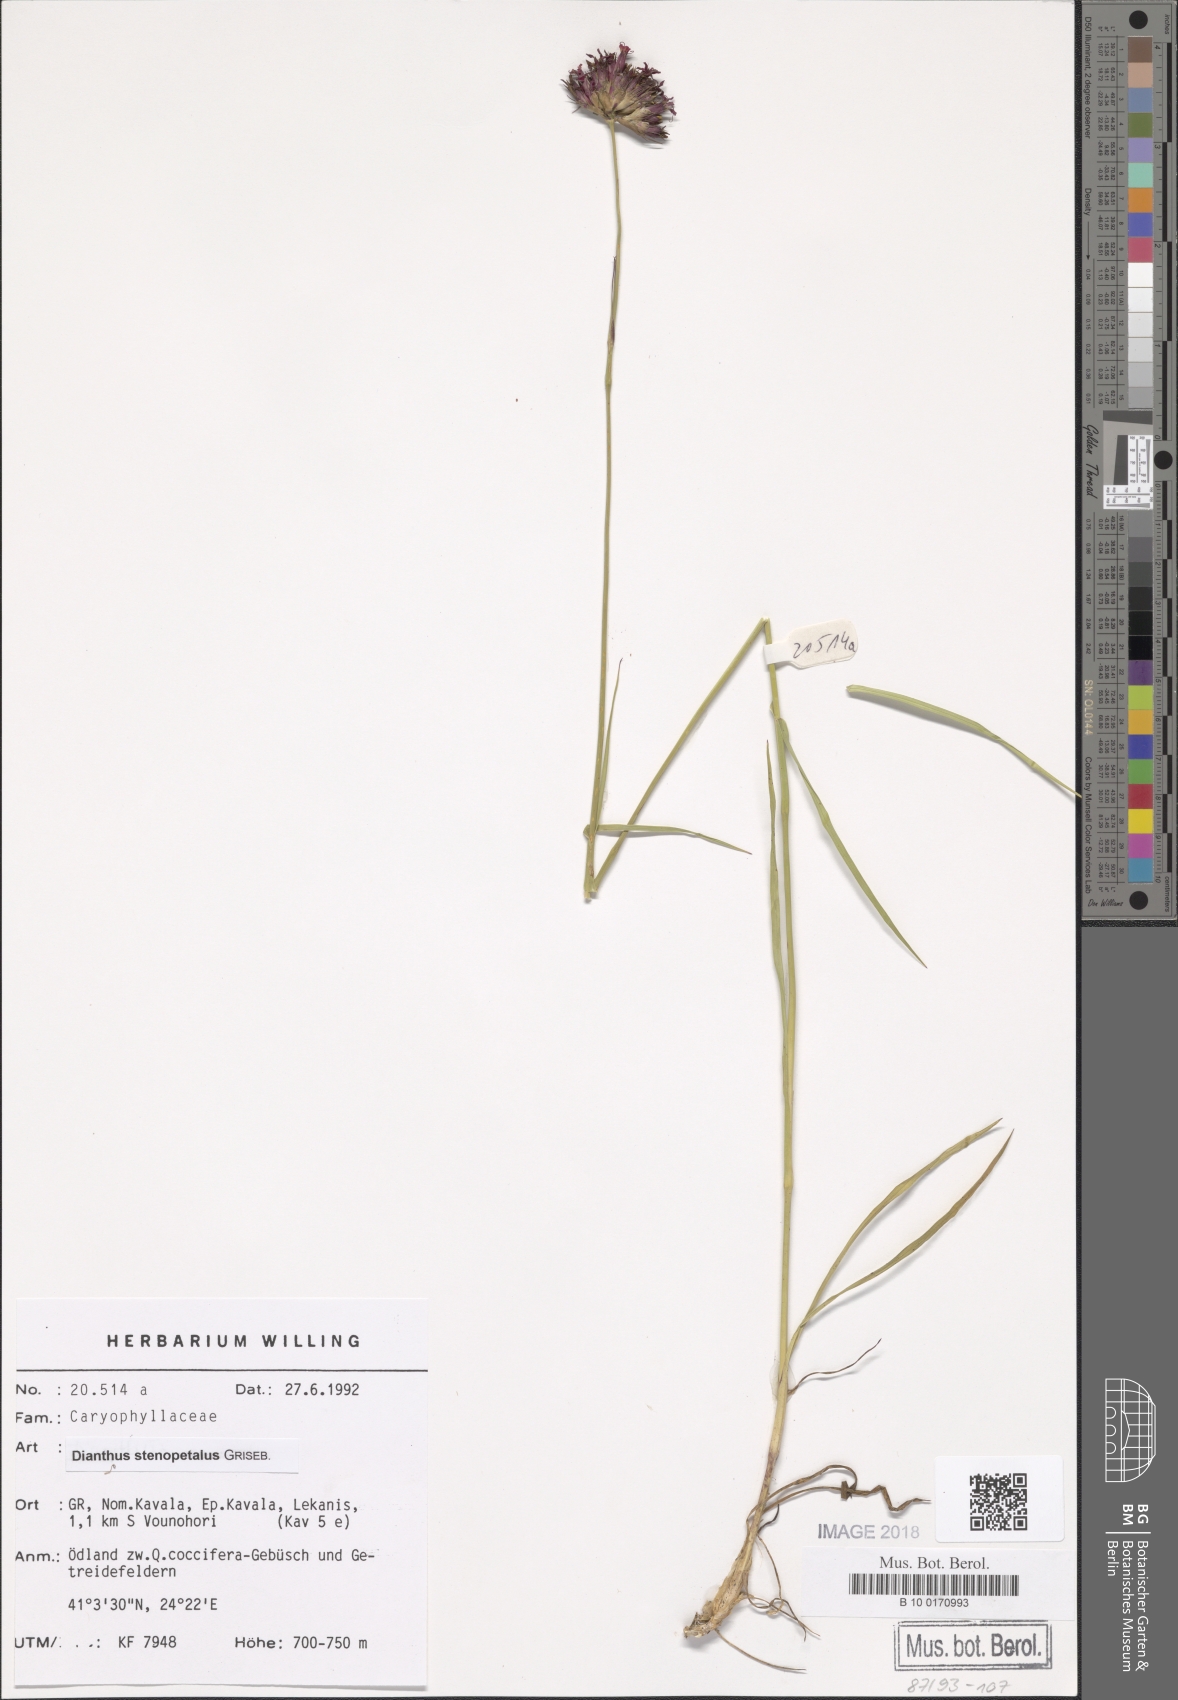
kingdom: Plantae
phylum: Tracheophyta
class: Magnoliopsida
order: Caryophyllales
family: Caryophyllaceae
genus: Dianthus
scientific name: Dianthus stenopetalus
